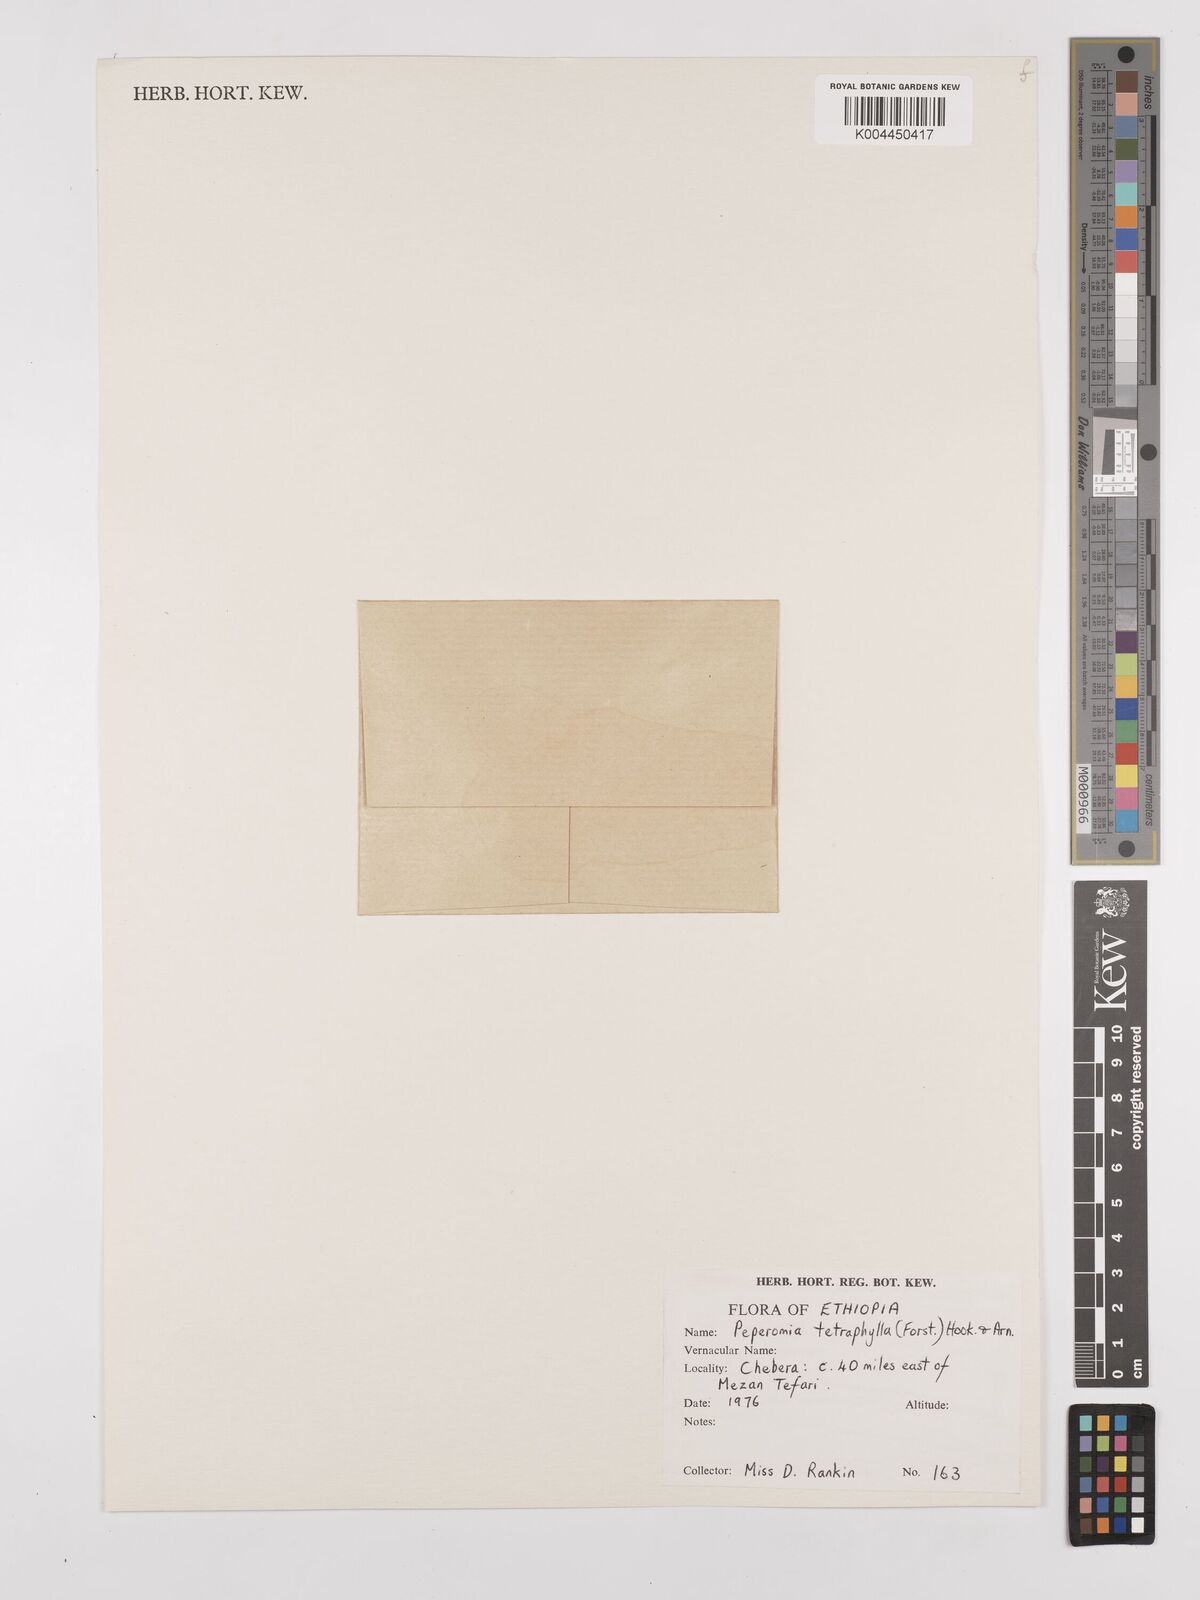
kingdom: Plantae
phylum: Tracheophyta
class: Magnoliopsida
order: Piperales
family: Piperaceae
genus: Peperomia
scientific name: Peperomia tetraphylla
